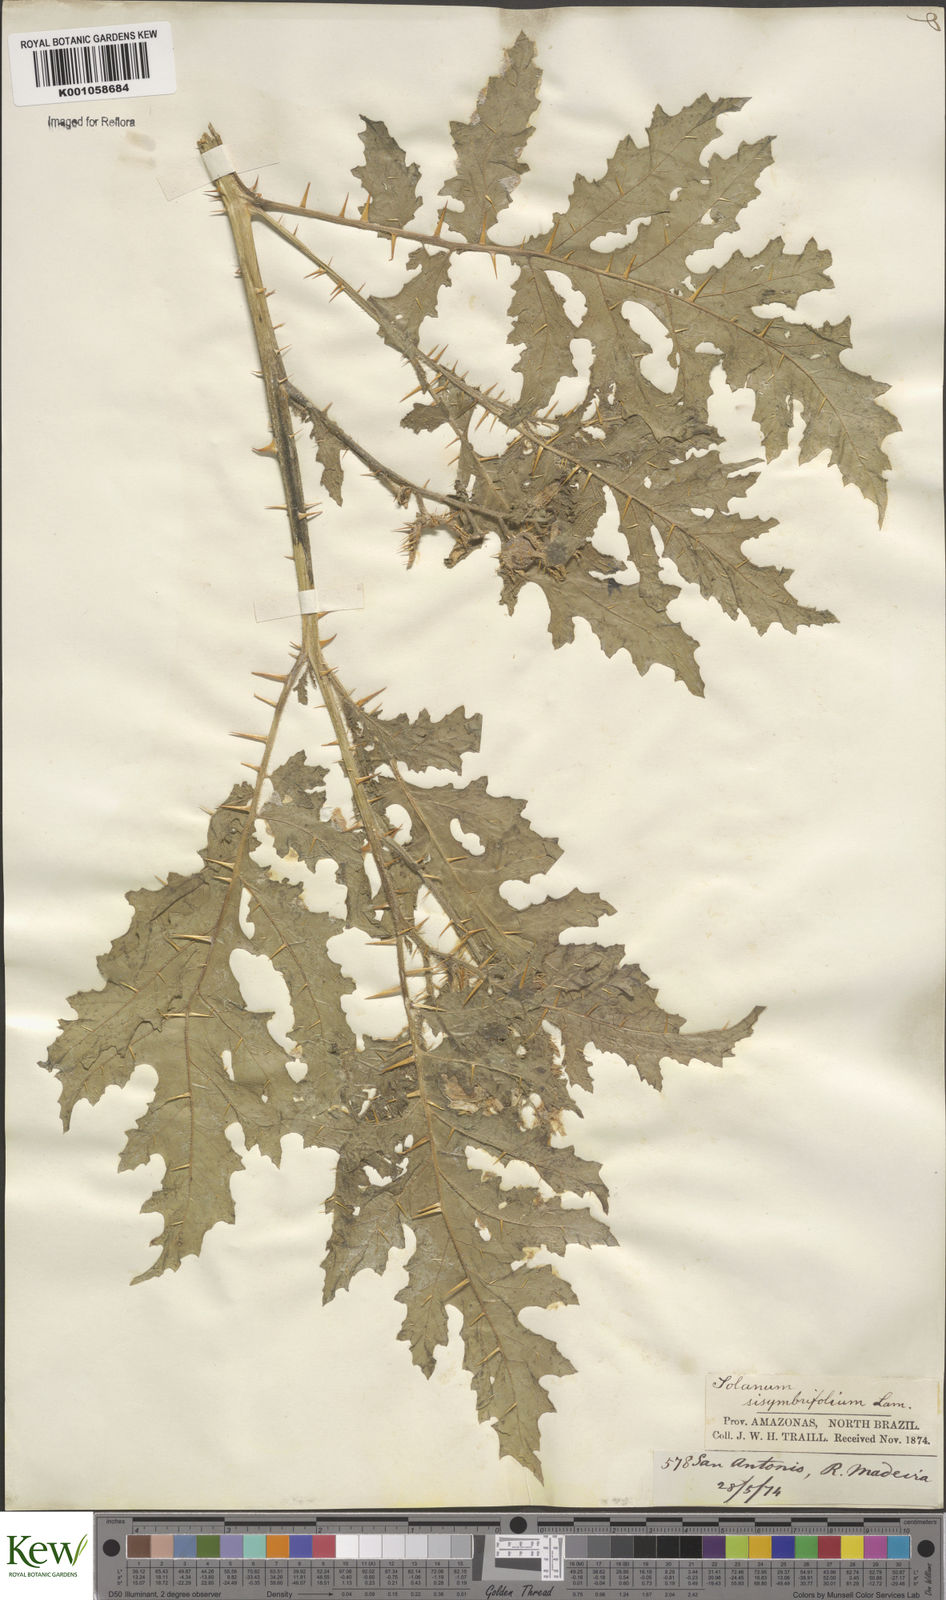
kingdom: Plantae
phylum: Tracheophyta
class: Magnoliopsida
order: Solanales
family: Solanaceae
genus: Solanum
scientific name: Solanum sisymbriifolium
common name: Red buffalo-bur
